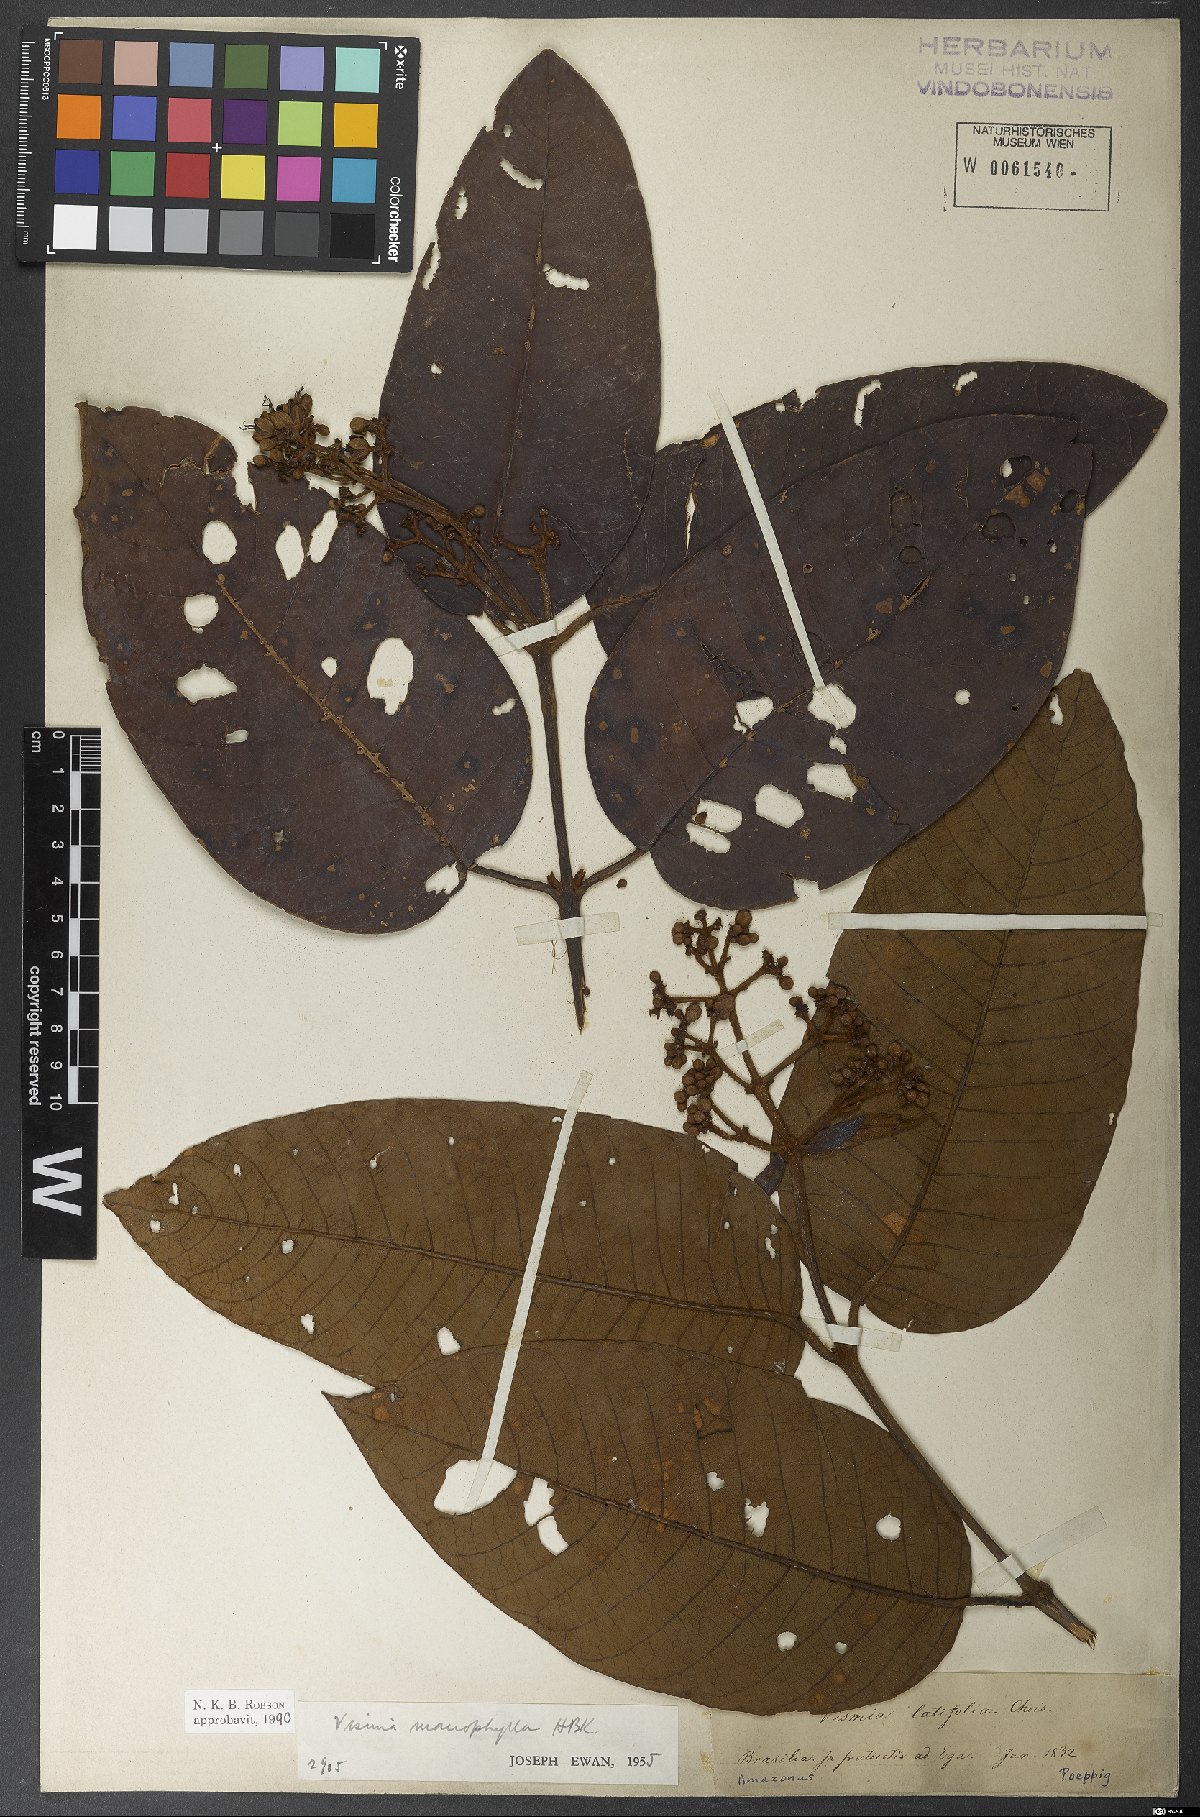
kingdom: Plantae
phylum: Tracheophyta
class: Magnoliopsida
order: Malpighiales
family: Hypericaceae
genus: Vismia
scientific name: Vismia macrophylla
